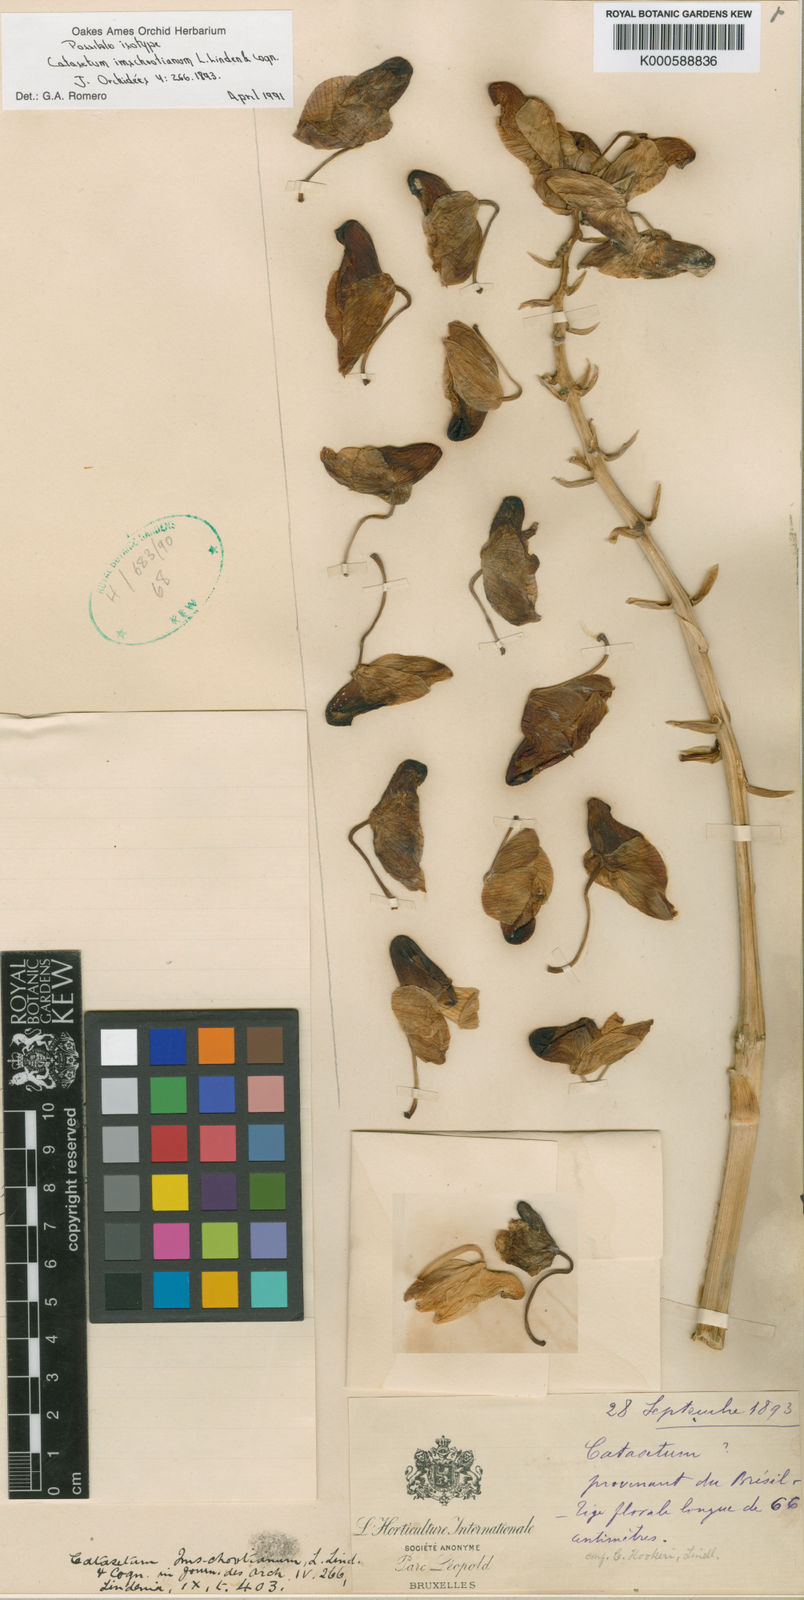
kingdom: Plantae
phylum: Tracheophyta
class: Liliopsida
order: Asparagales
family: Orchidaceae
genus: Catasetum
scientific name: Catasetum hookeri
